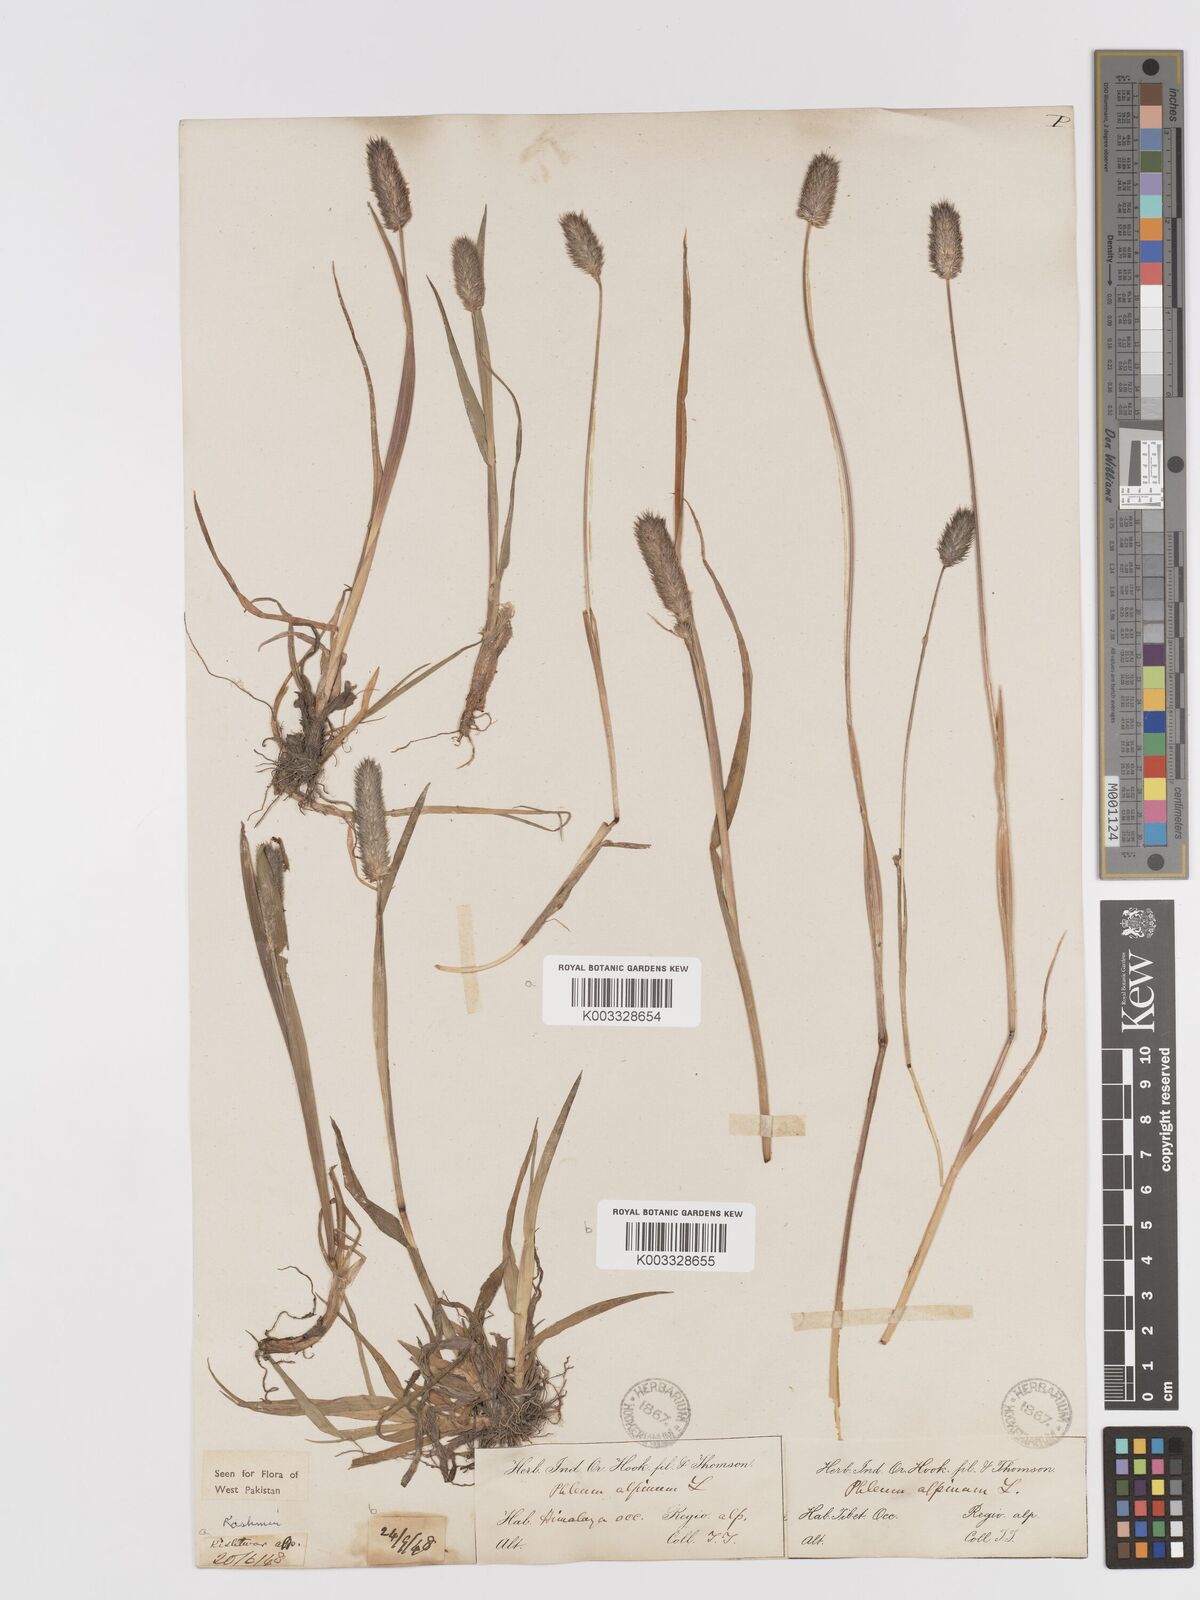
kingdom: Plantae
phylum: Tracheophyta
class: Liliopsida
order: Poales
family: Poaceae
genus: Phleum
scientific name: Phleum alpinum
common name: Alpine cat's-tail
